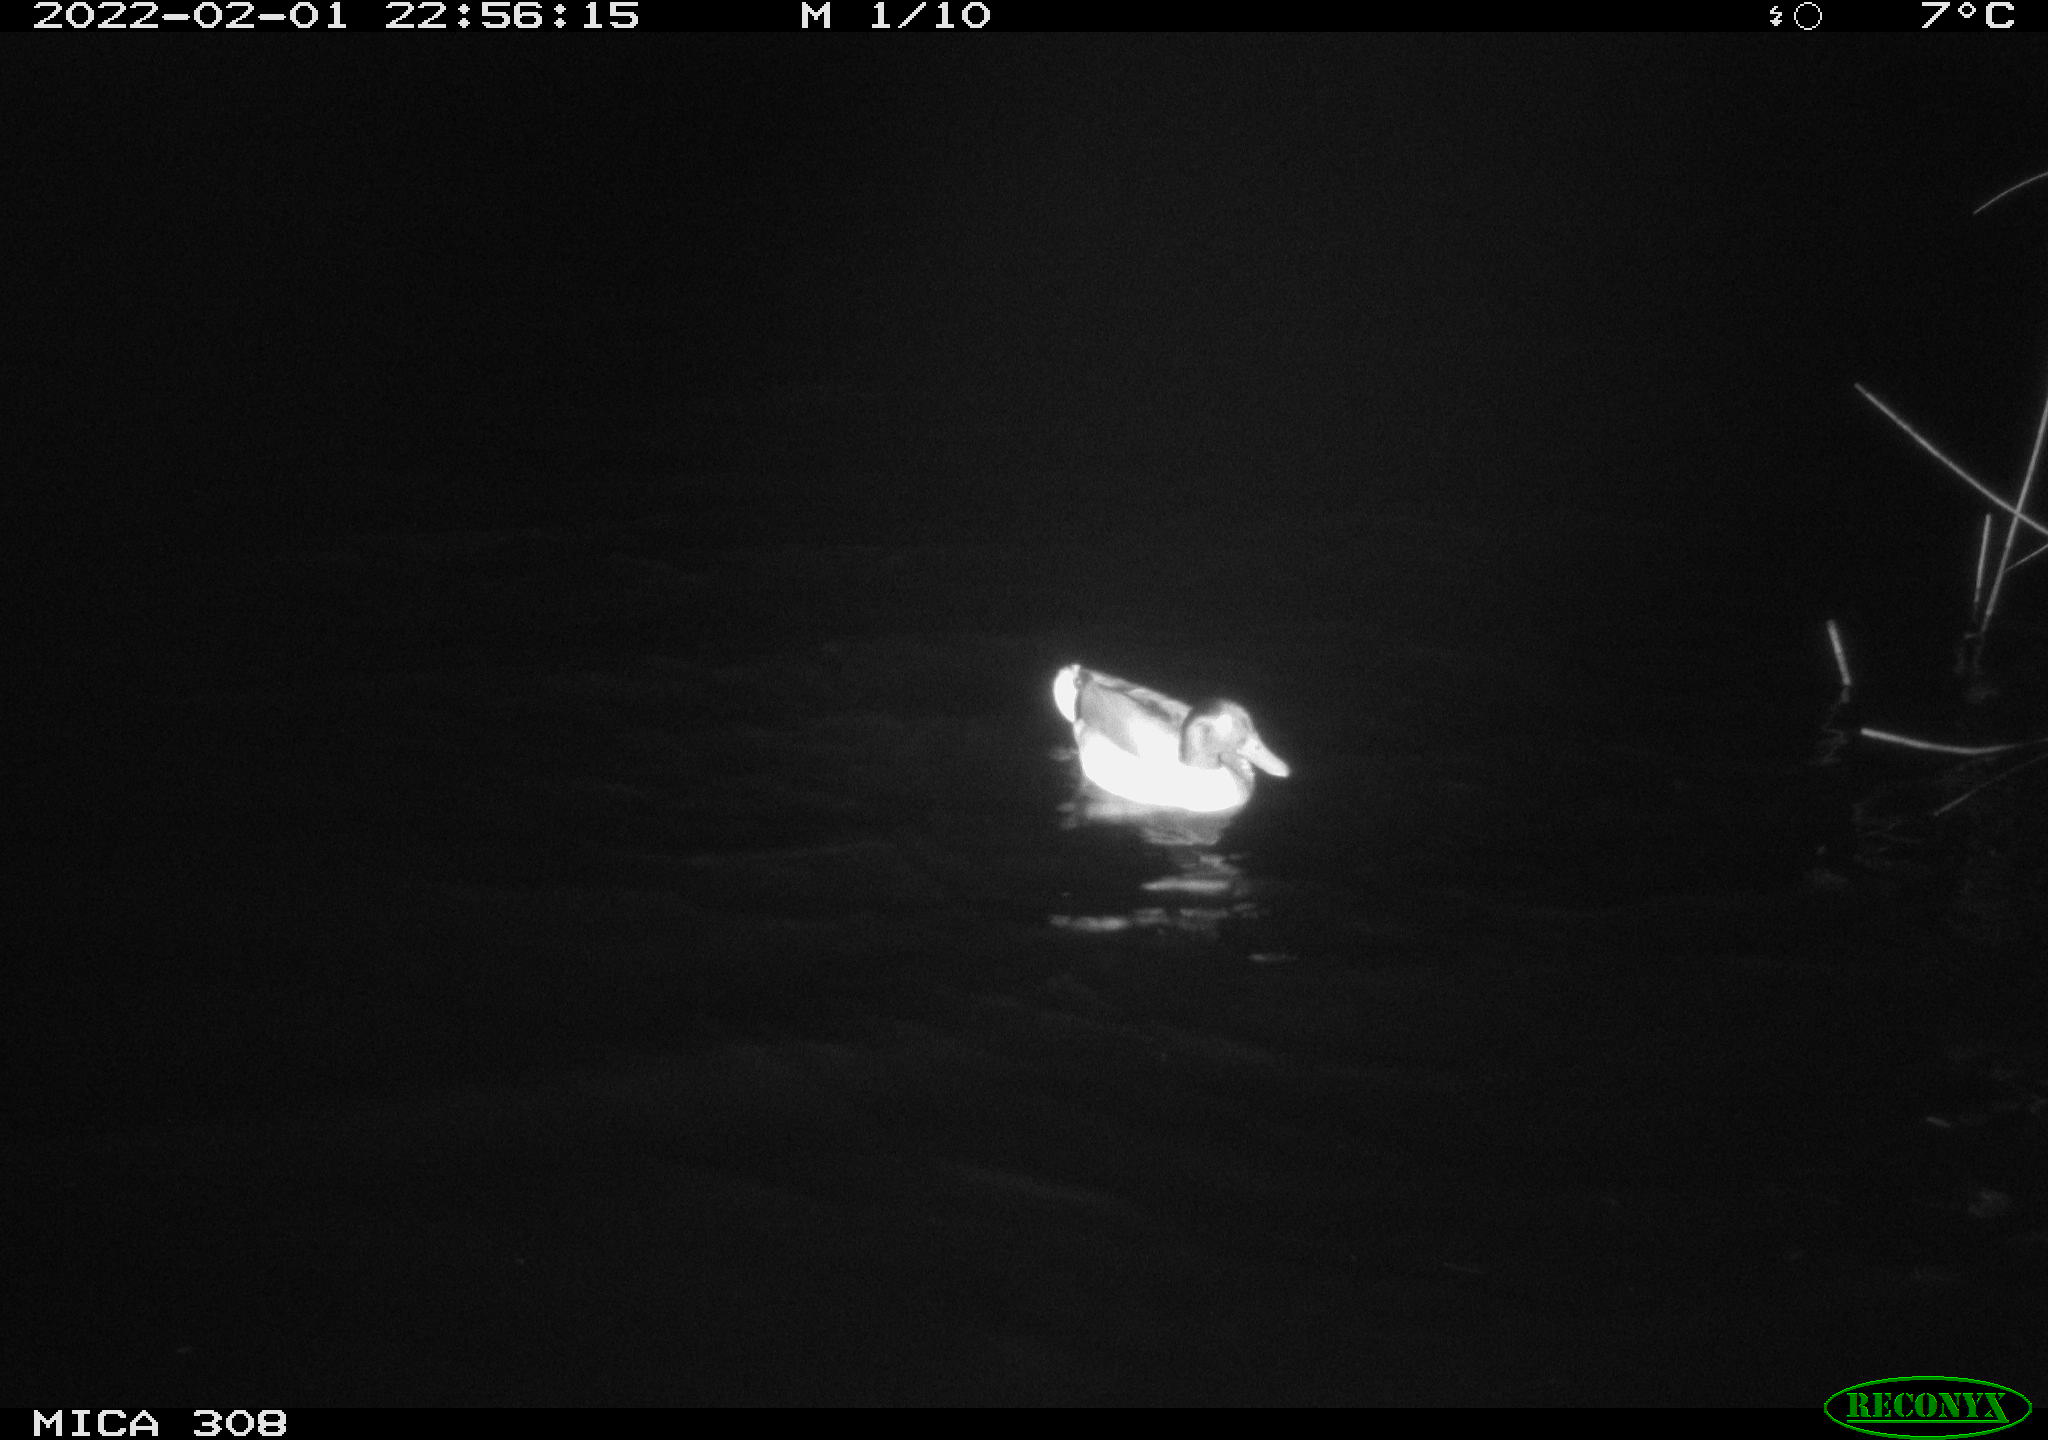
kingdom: Animalia
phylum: Chordata
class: Aves
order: Anseriformes
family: Anatidae
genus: Anas
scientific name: Anas
